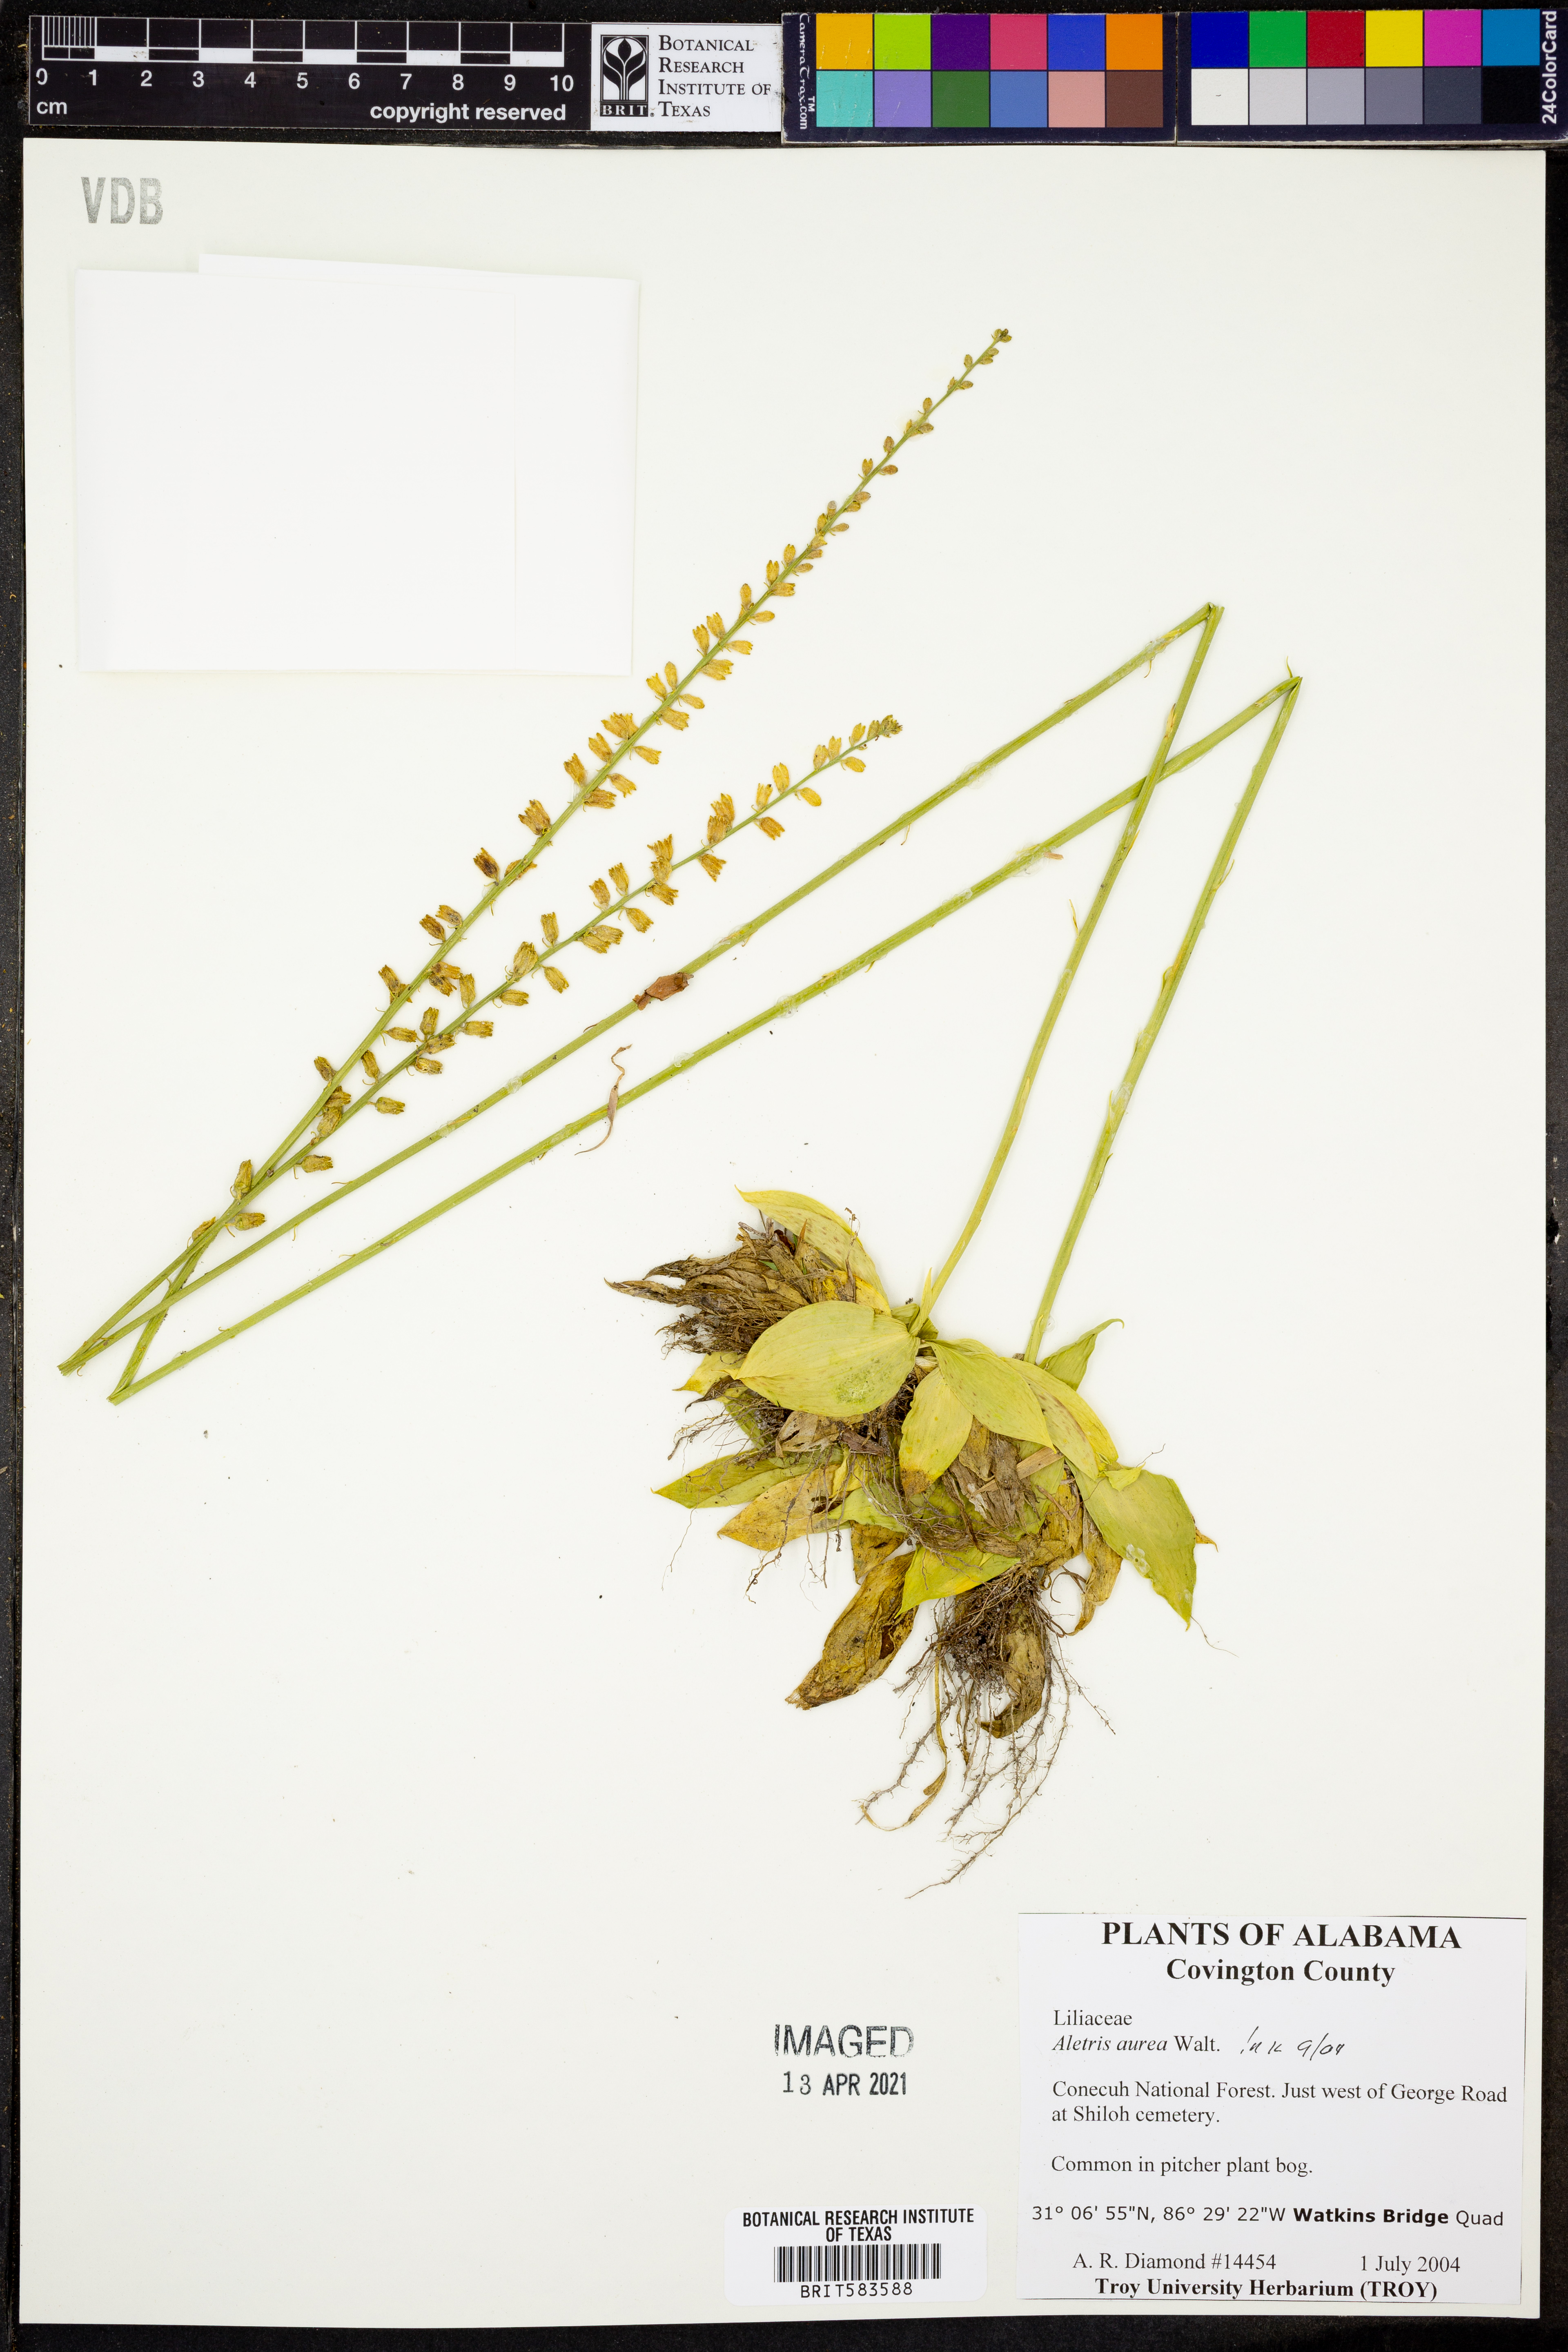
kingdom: Plantae
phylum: Tracheophyta
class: Liliopsida
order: Dioscoreales
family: Nartheciaceae
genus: Aletris
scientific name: Aletris aurea
